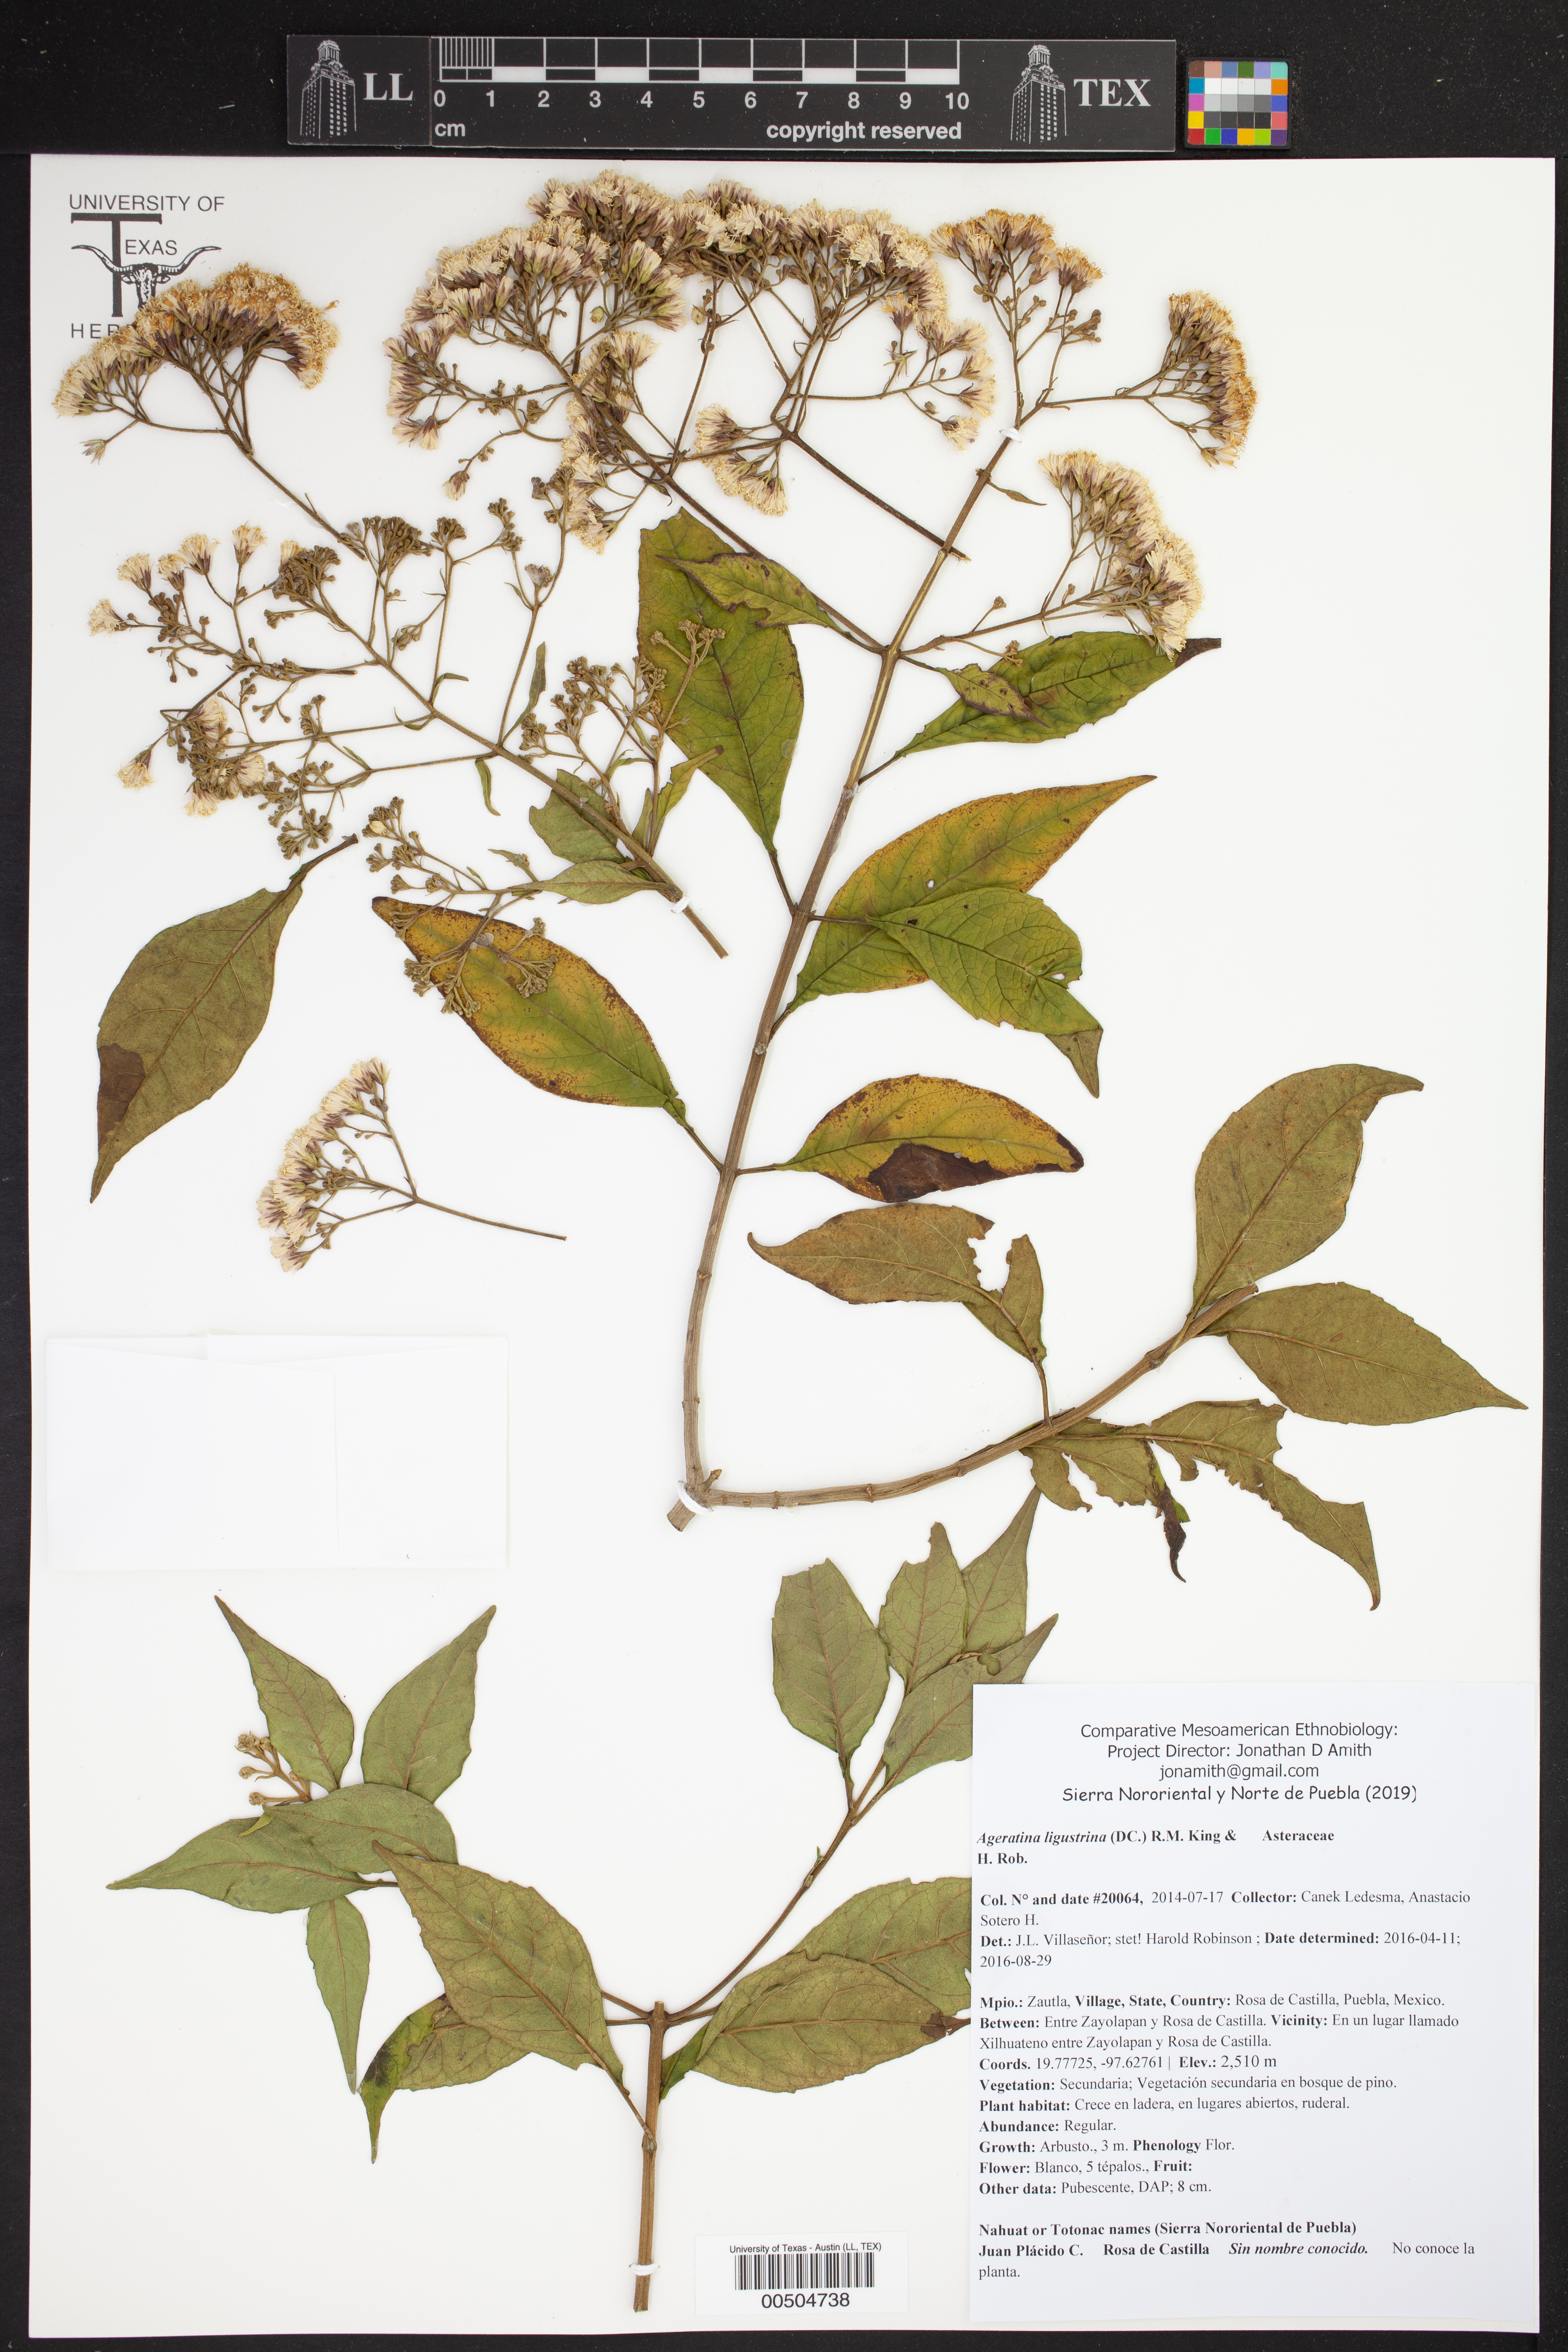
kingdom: Plantae
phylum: Tracheophyta
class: Magnoliopsida
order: Asterales
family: Asteraceae
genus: Ageratina
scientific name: Ageratina ligustrina
